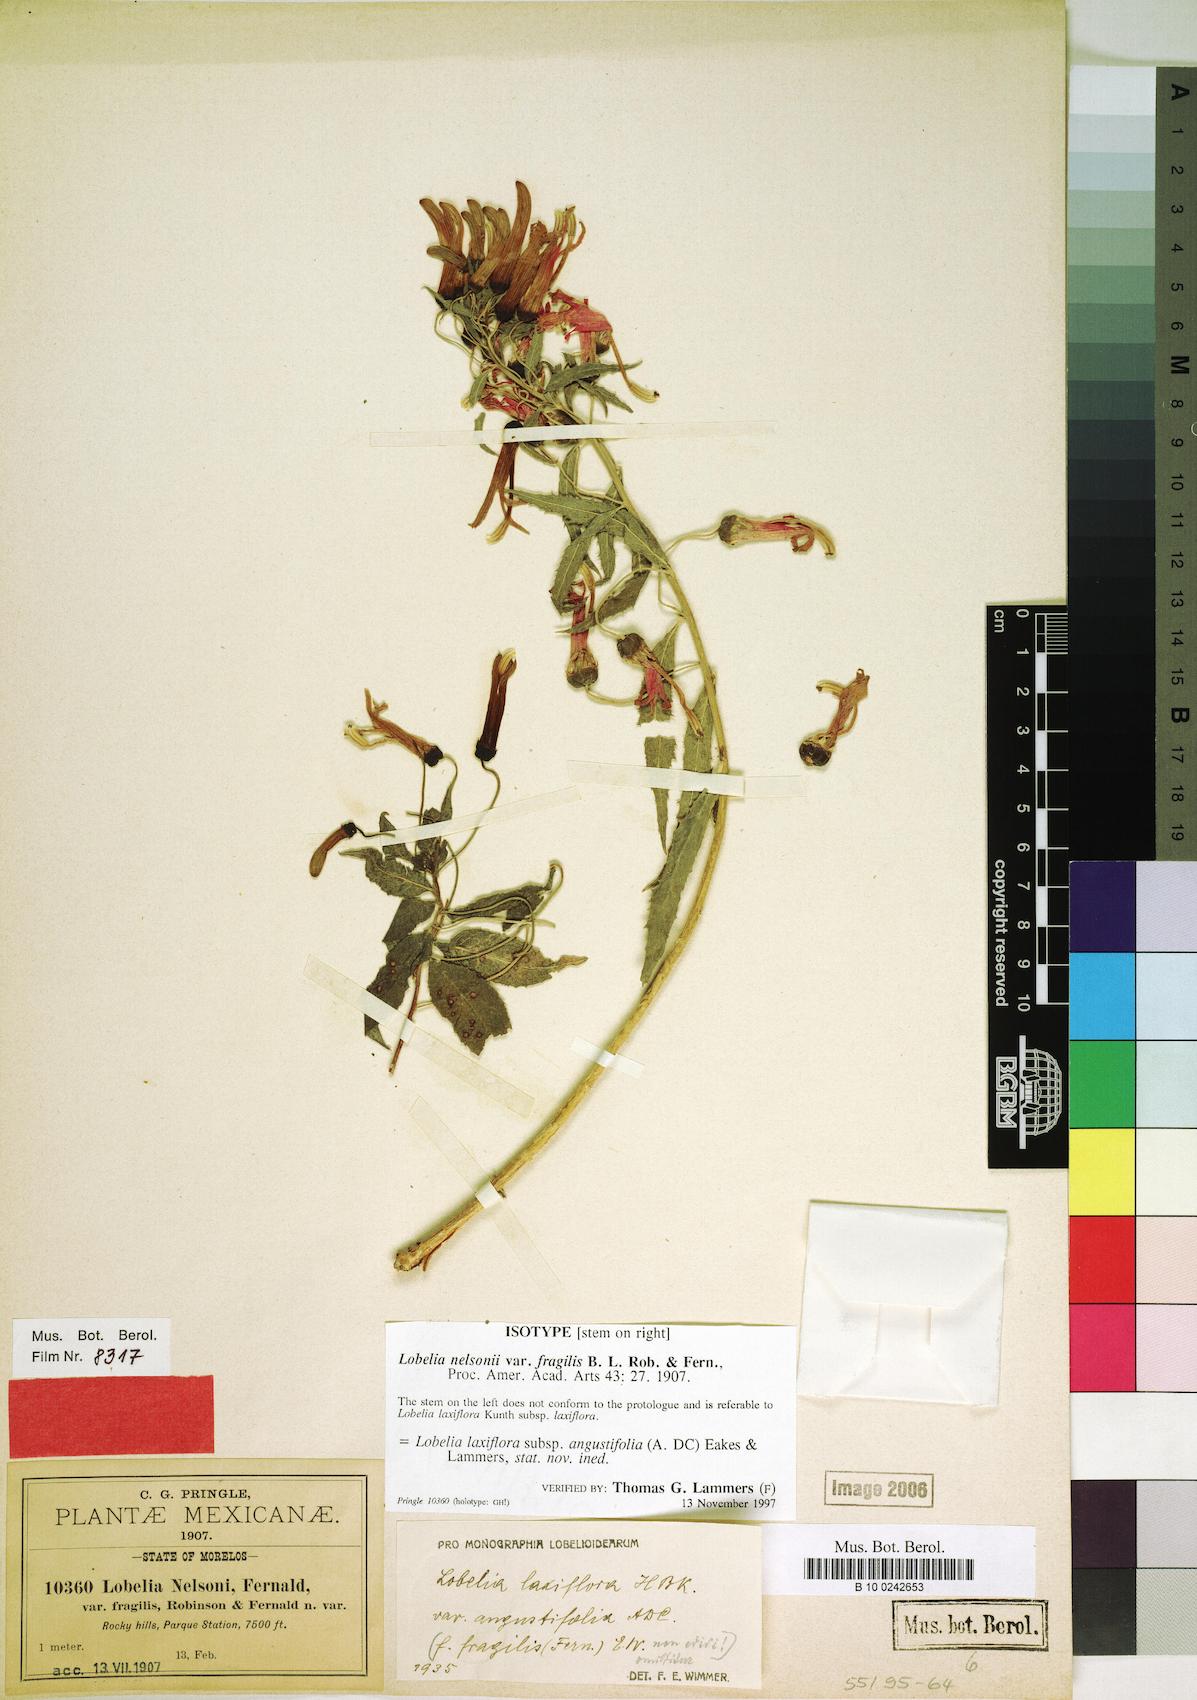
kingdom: Plantae
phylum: Tracheophyta
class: Magnoliopsida
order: Asterales
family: Campanulaceae
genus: Lobelia
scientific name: Lobelia laxiflora
